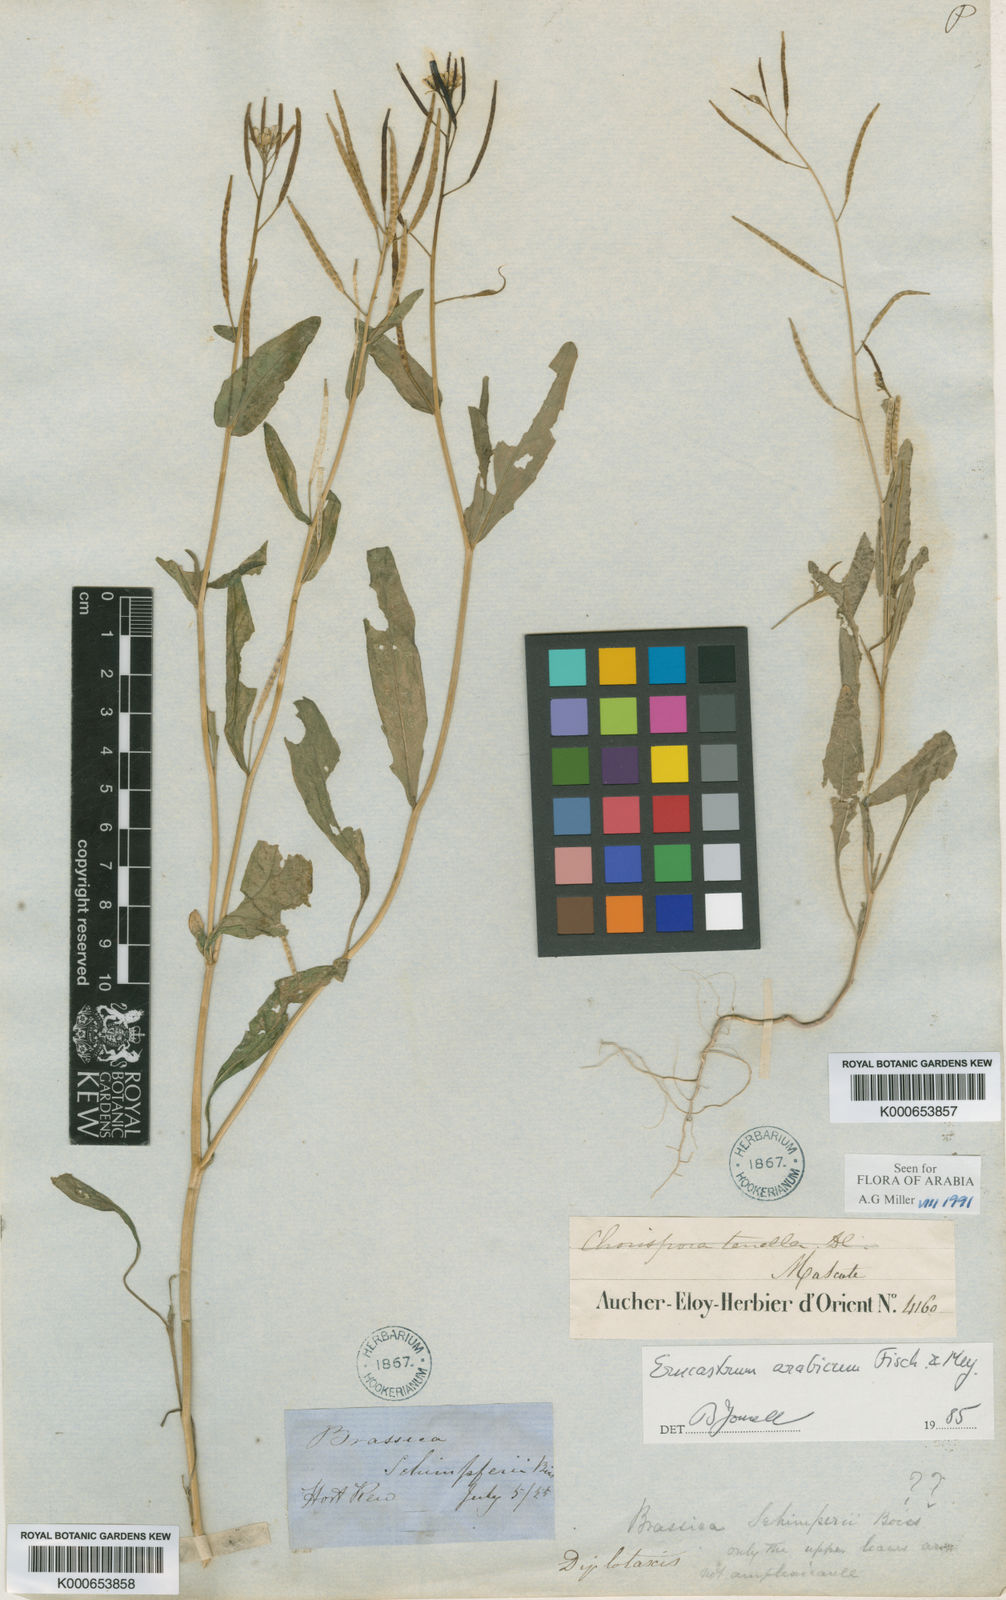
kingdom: Plantae
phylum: Tracheophyta
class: Magnoliopsida
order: Brassicales
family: Brassicaceae
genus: Erucastrum
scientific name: Erucastrum arabicum
